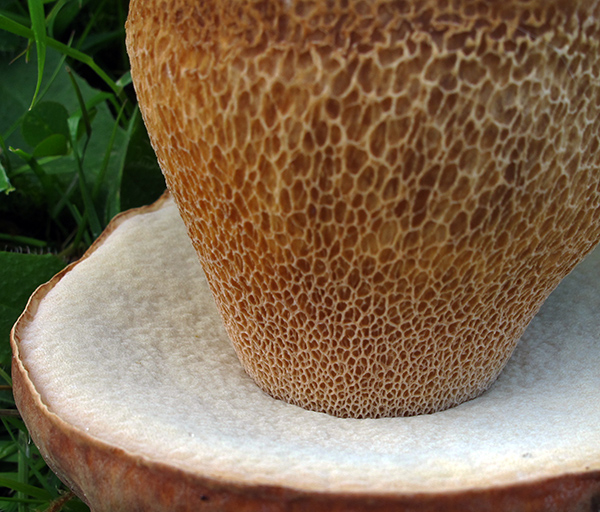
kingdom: Fungi
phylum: Basidiomycota
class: Agaricomycetes
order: Boletales
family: Boletaceae
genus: Boletus
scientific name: Boletus reticulatus
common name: sommer-rørhat
